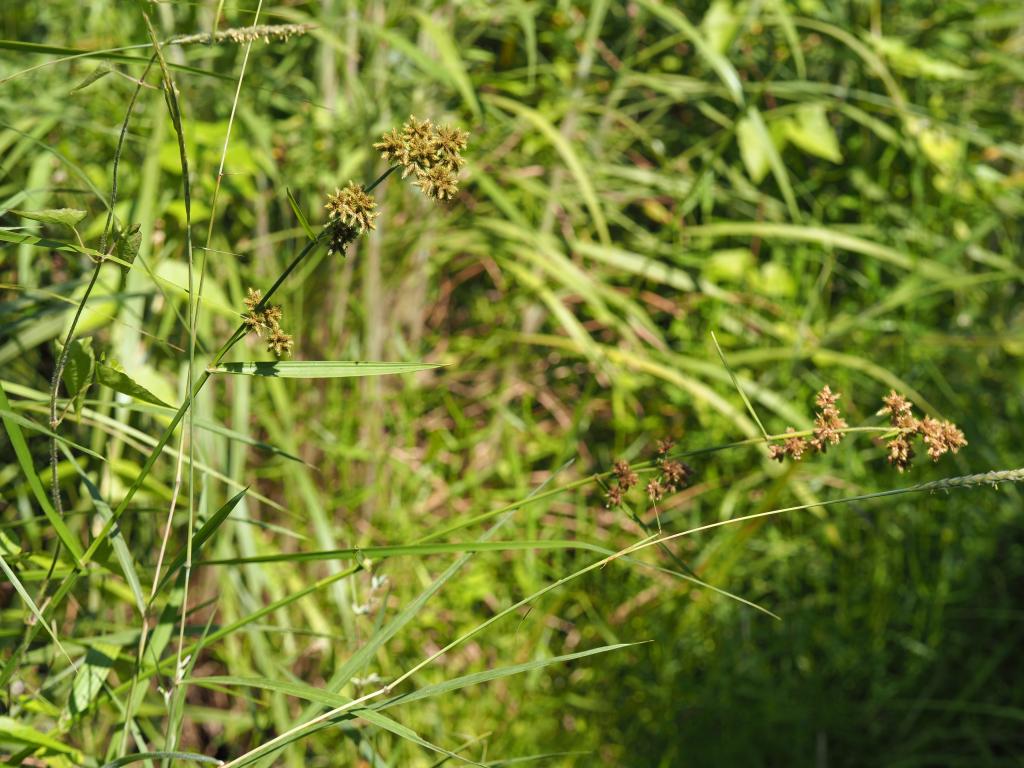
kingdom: Plantae
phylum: Tracheophyta
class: Liliopsida
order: Poales
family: Cyperaceae
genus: Fuirena
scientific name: Fuirena umbellata
